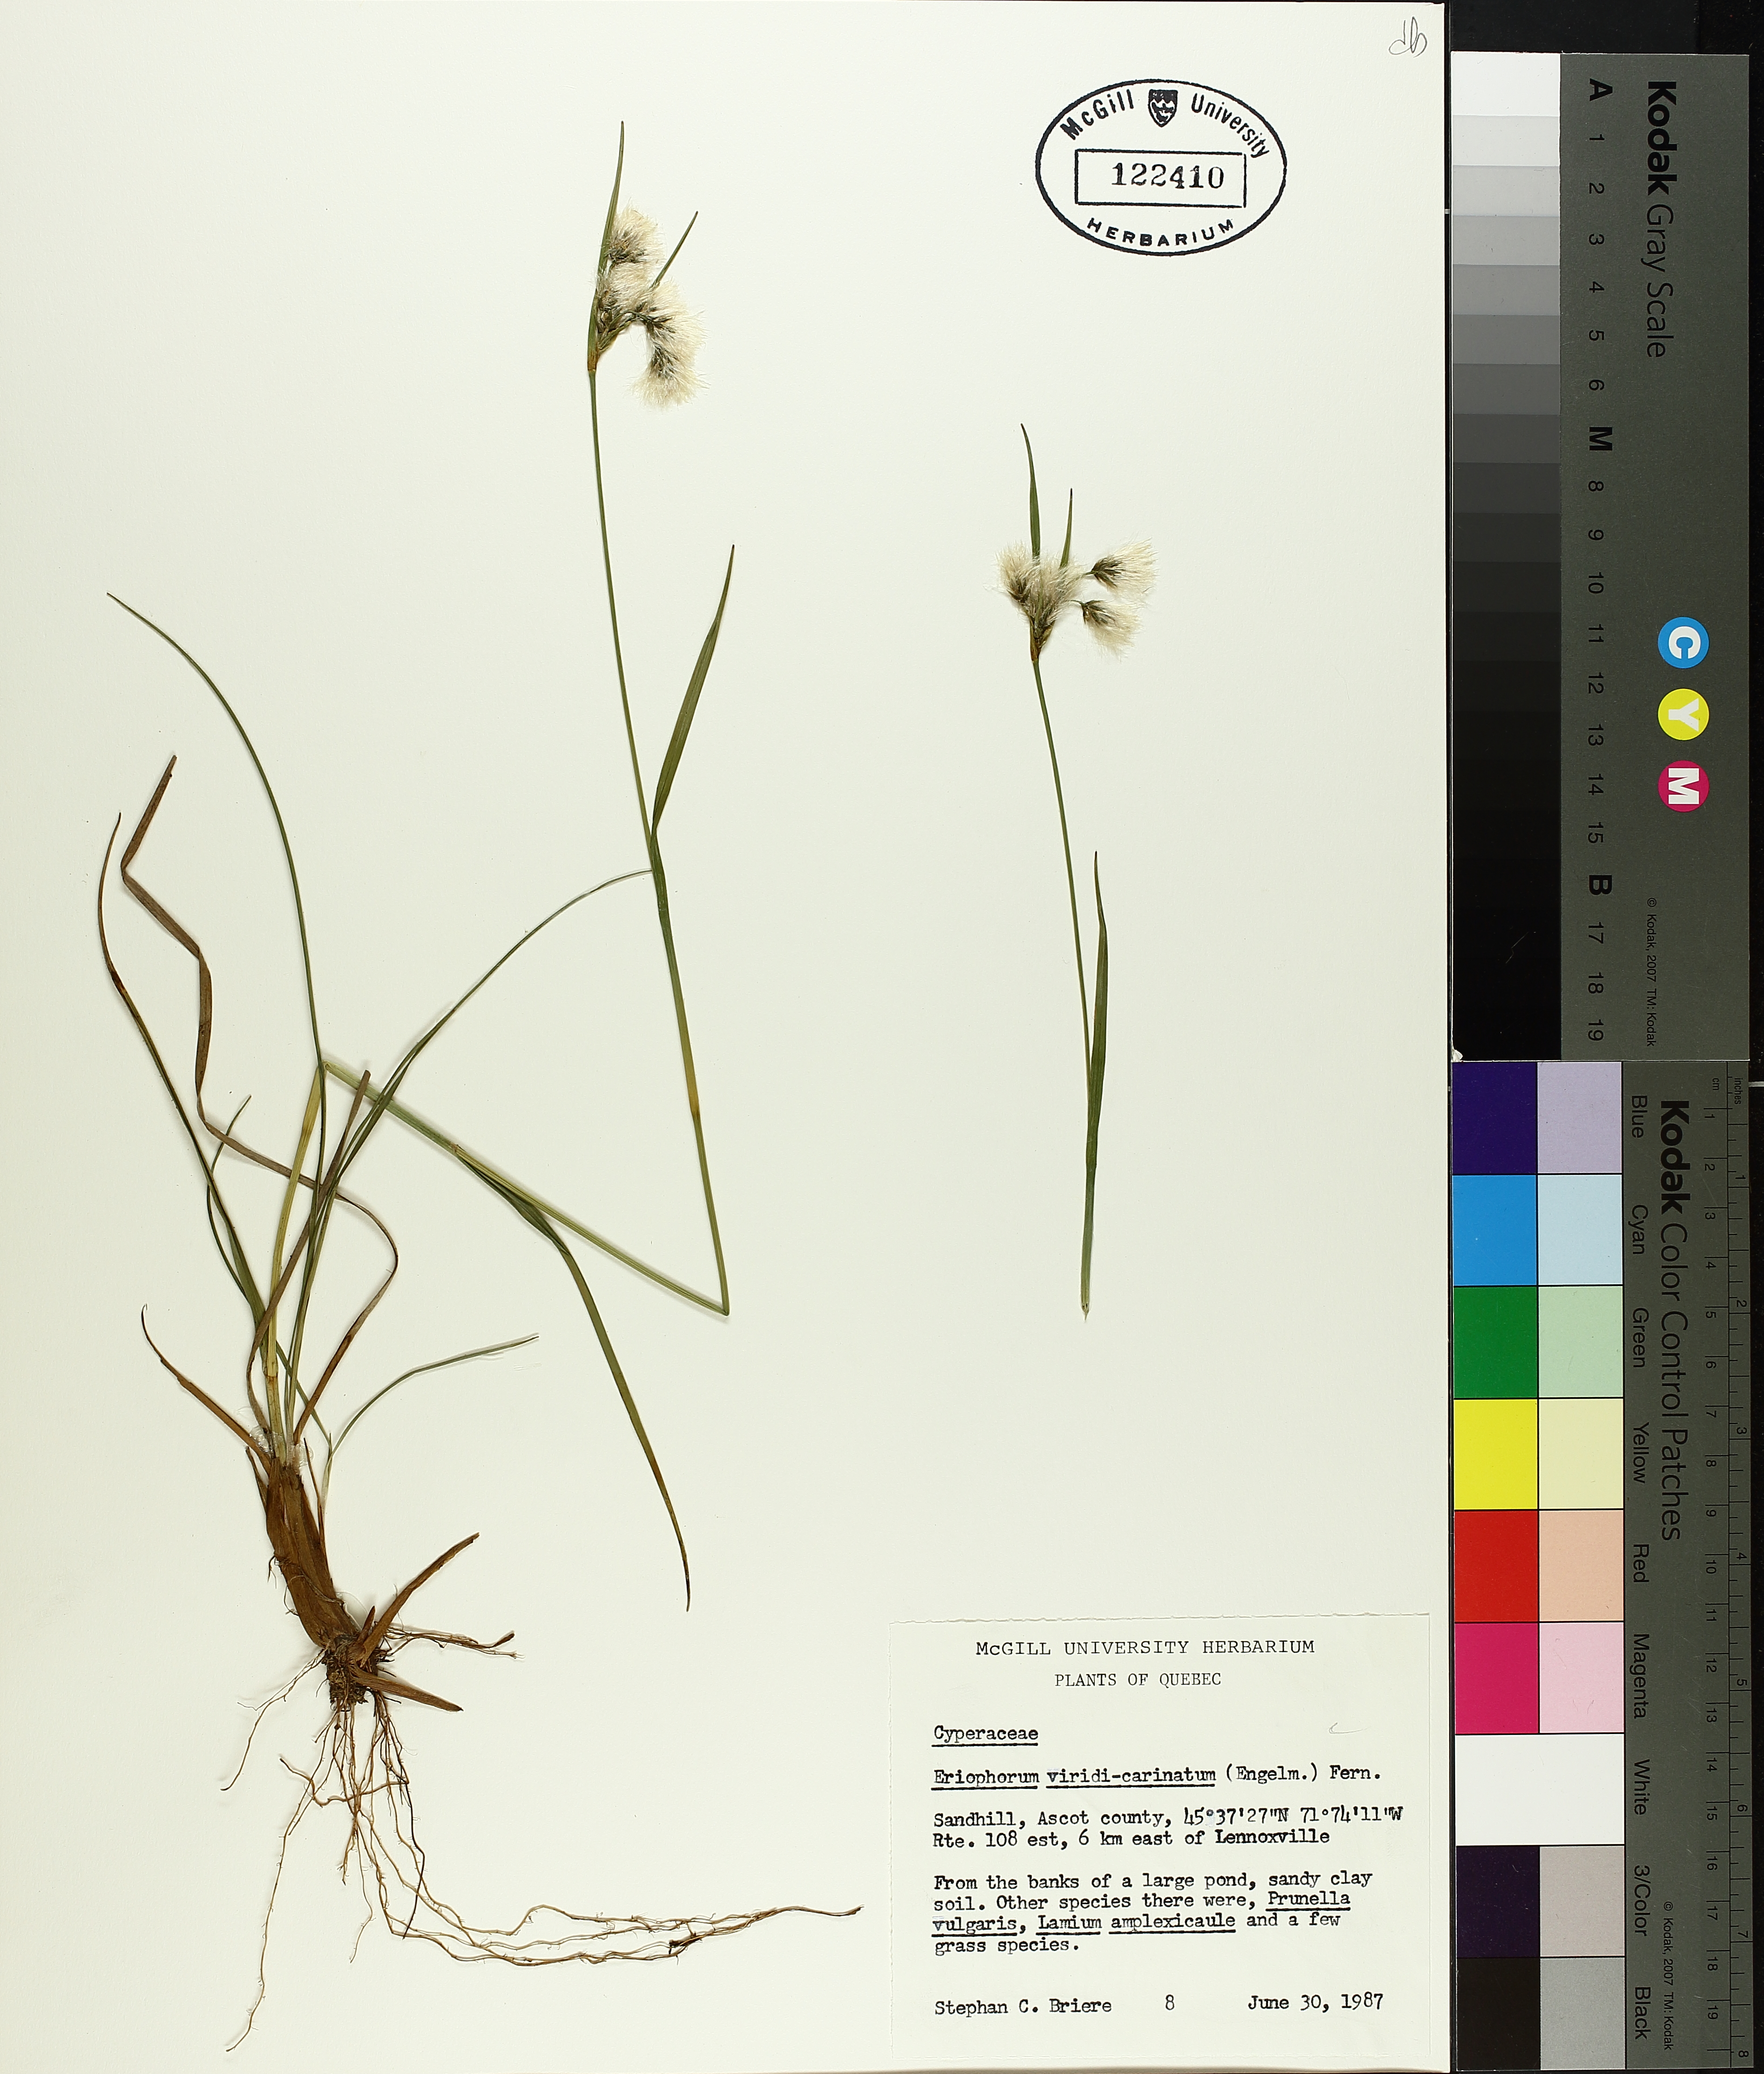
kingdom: Plantae
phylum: Tracheophyta
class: Liliopsida
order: Poales
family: Cyperaceae
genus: Eriophorum
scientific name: Eriophorum viridicarinatum
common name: Green-keeled cottongrass
